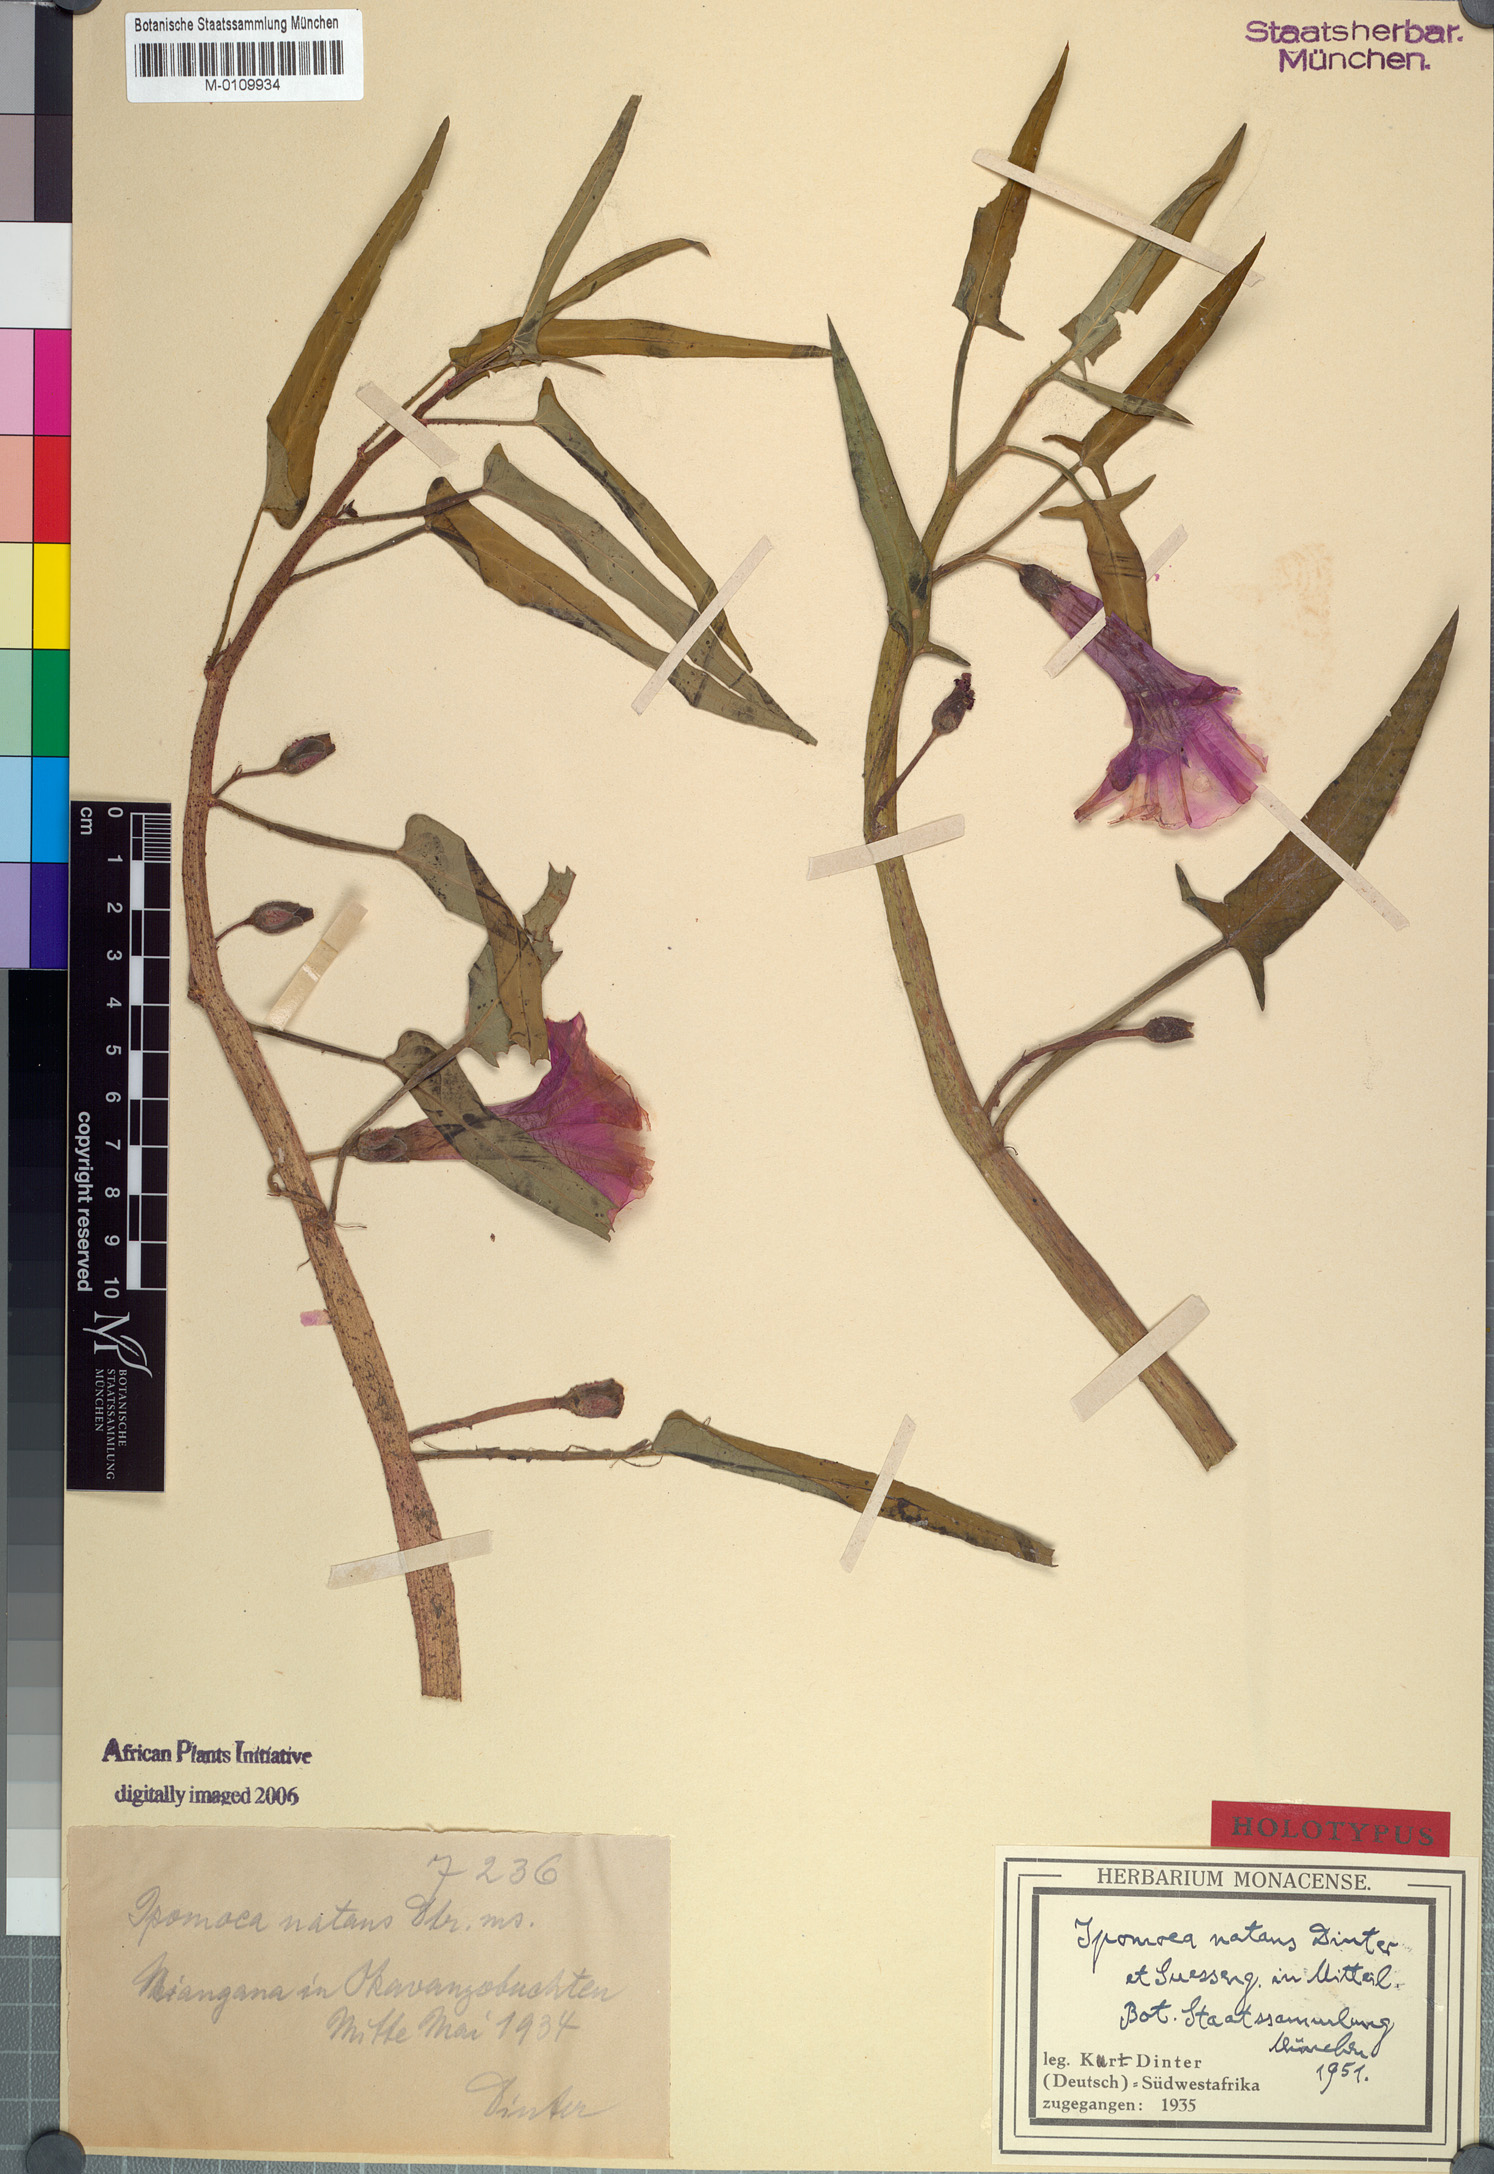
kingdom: Plantae
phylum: Tracheophyta
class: Magnoliopsida
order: Solanales
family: Convolvulaceae
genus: Ipomoea
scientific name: Ipomoea aquatica
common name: Swamp morning-glory
